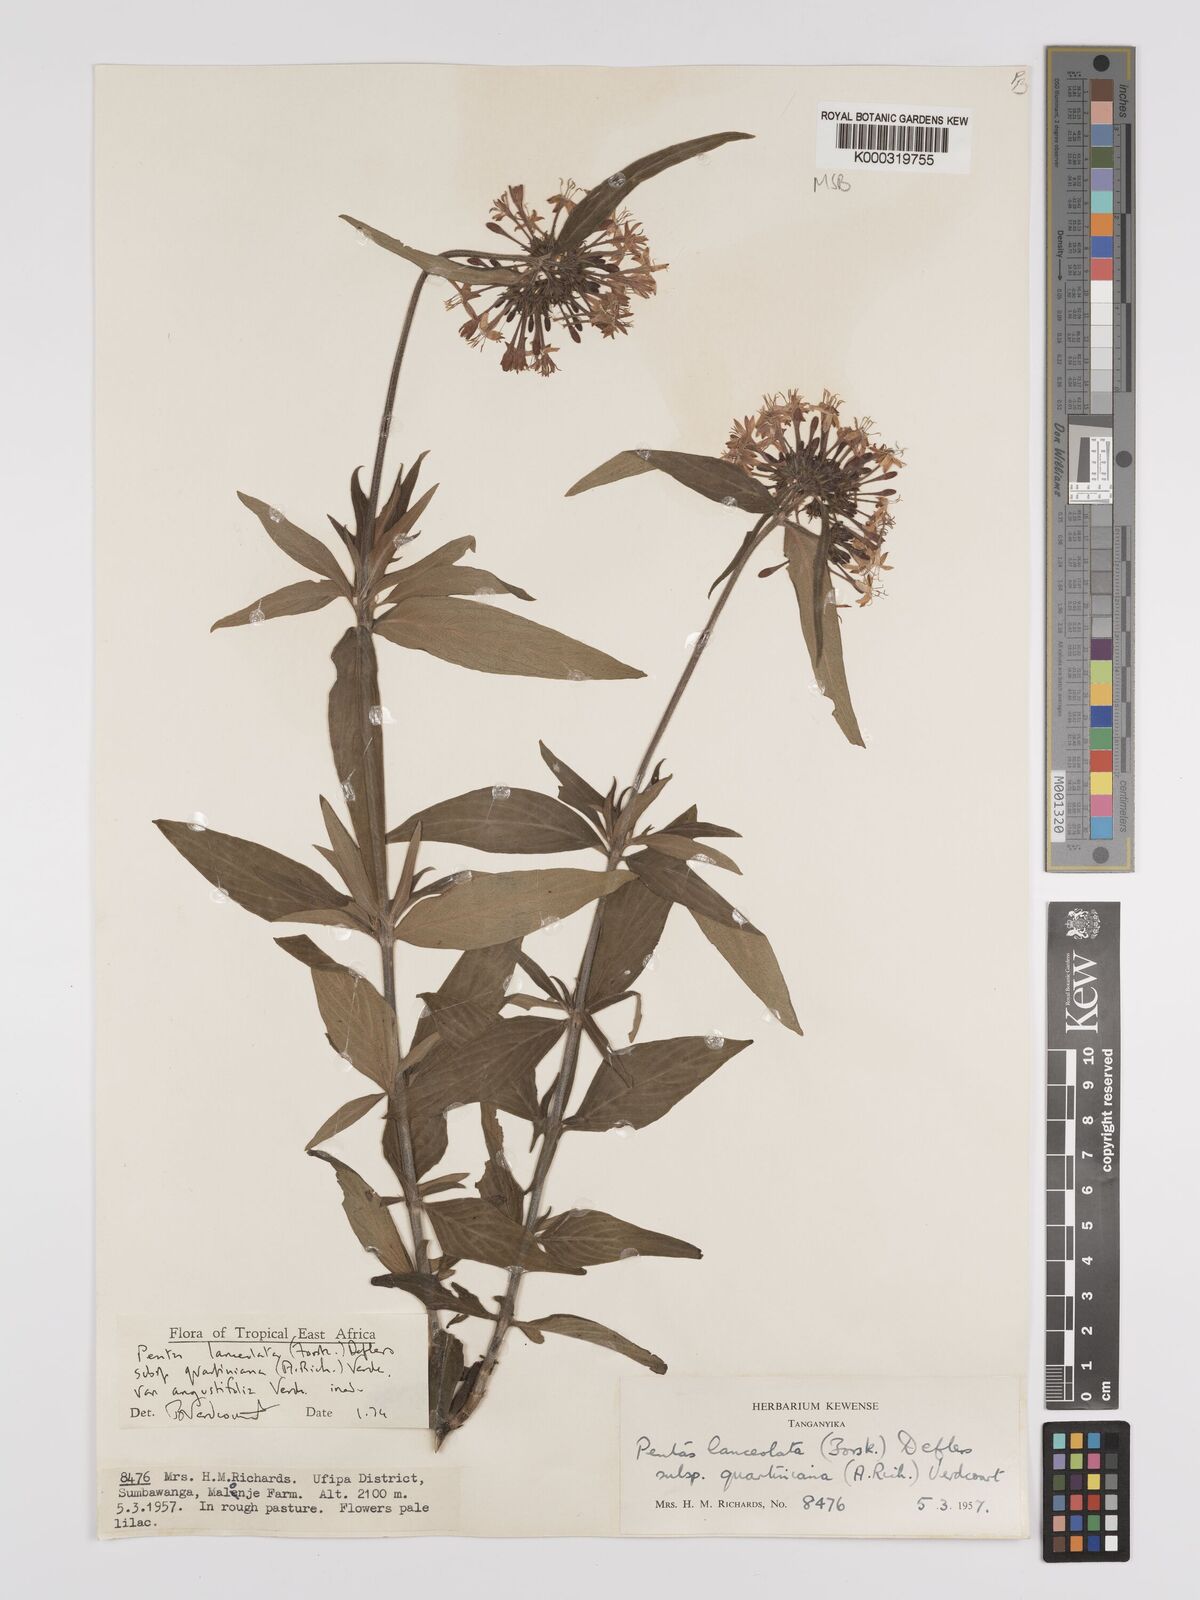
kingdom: Plantae
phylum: Tracheophyta
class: Magnoliopsida
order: Gentianales
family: Rubiaceae
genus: Pentas
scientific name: Pentas lanceolata
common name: Egyptian starcluster
